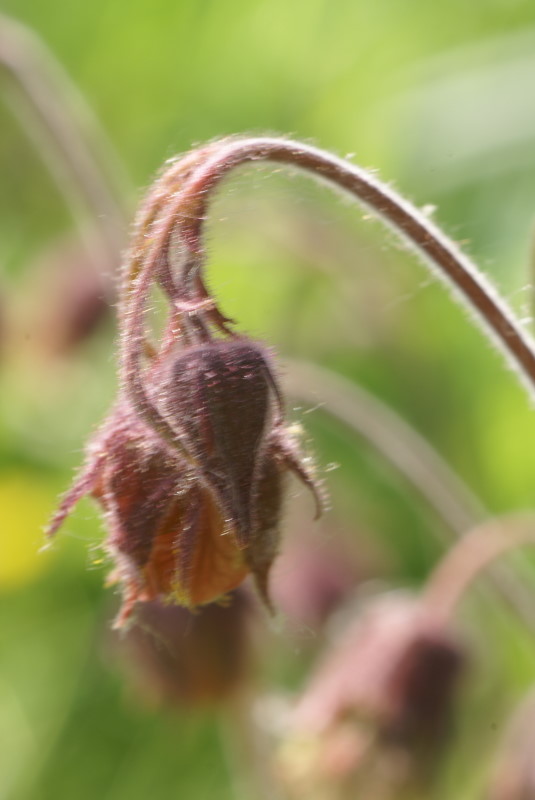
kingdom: Plantae
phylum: Tracheophyta
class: Magnoliopsida
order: Rosales
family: Rosaceae
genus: Geum
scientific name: Geum rivale
